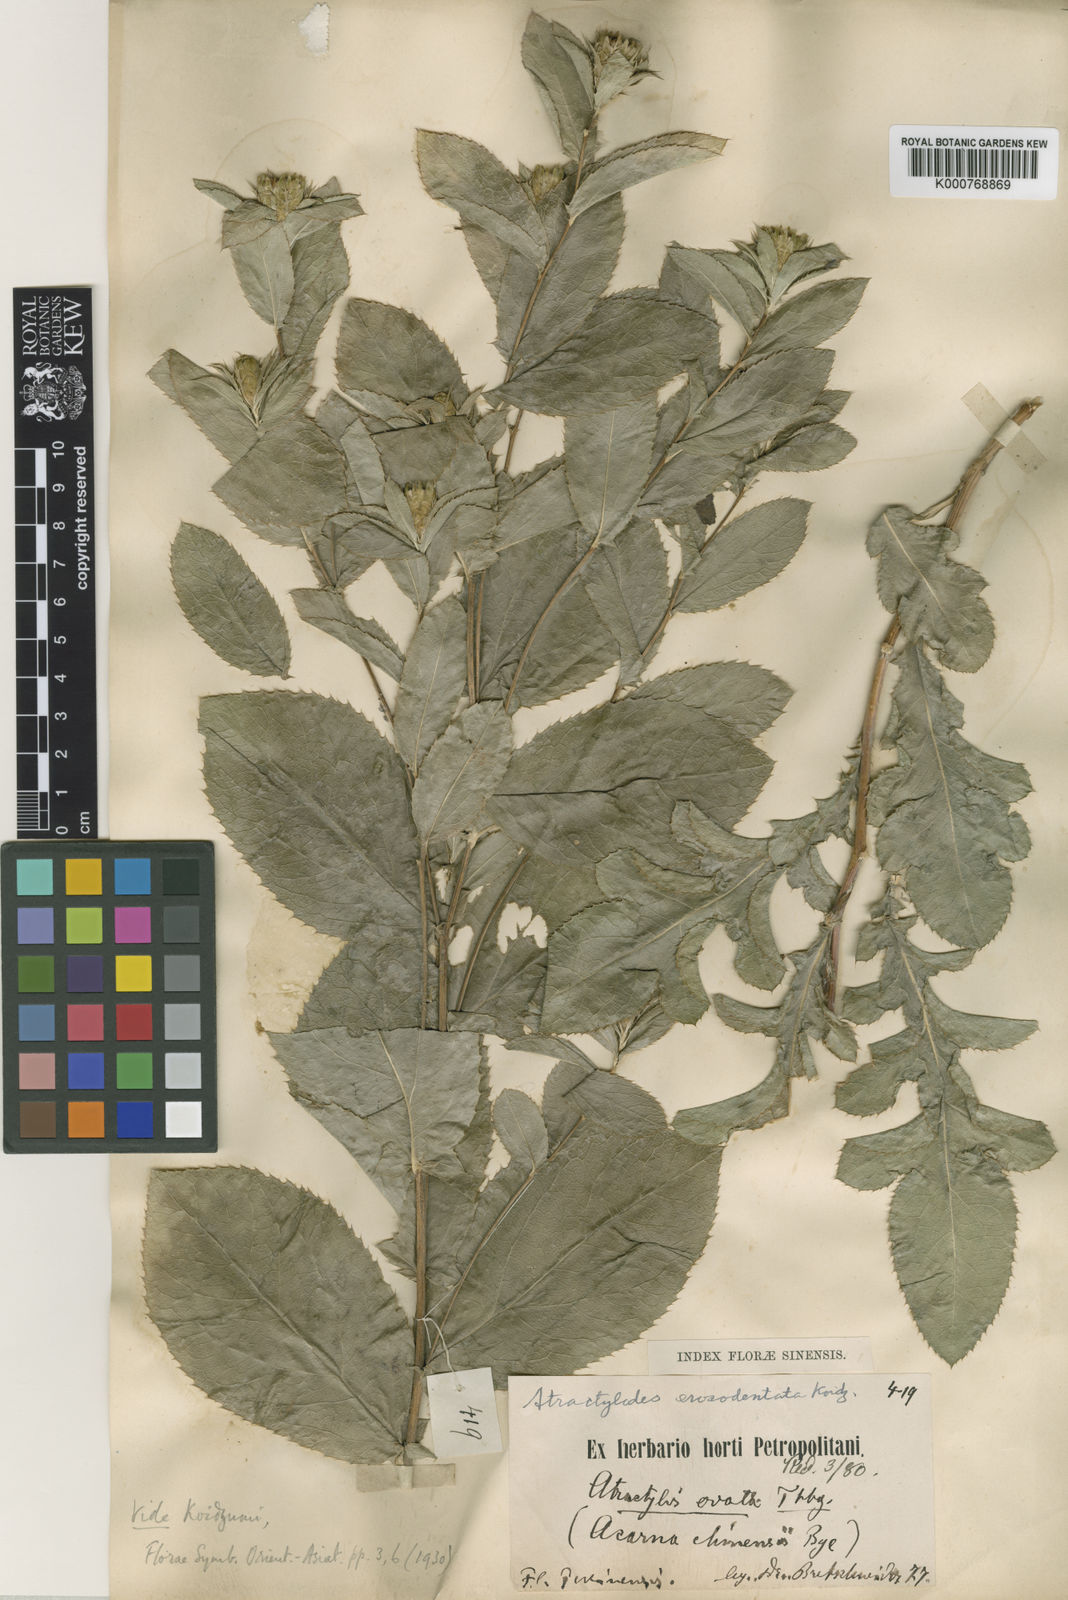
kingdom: Plantae
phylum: Tracheophyta
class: Magnoliopsida
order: Asterales
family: Asteraceae
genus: Atractylis
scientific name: Atractylis
